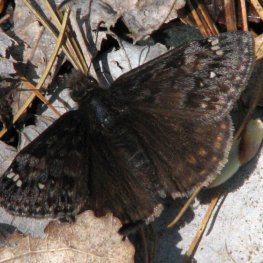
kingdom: Animalia
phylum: Arthropoda
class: Insecta
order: Lepidoptera
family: Hesperiidae
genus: Gesta
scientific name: Gesta
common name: Juvenal's Duskywing
